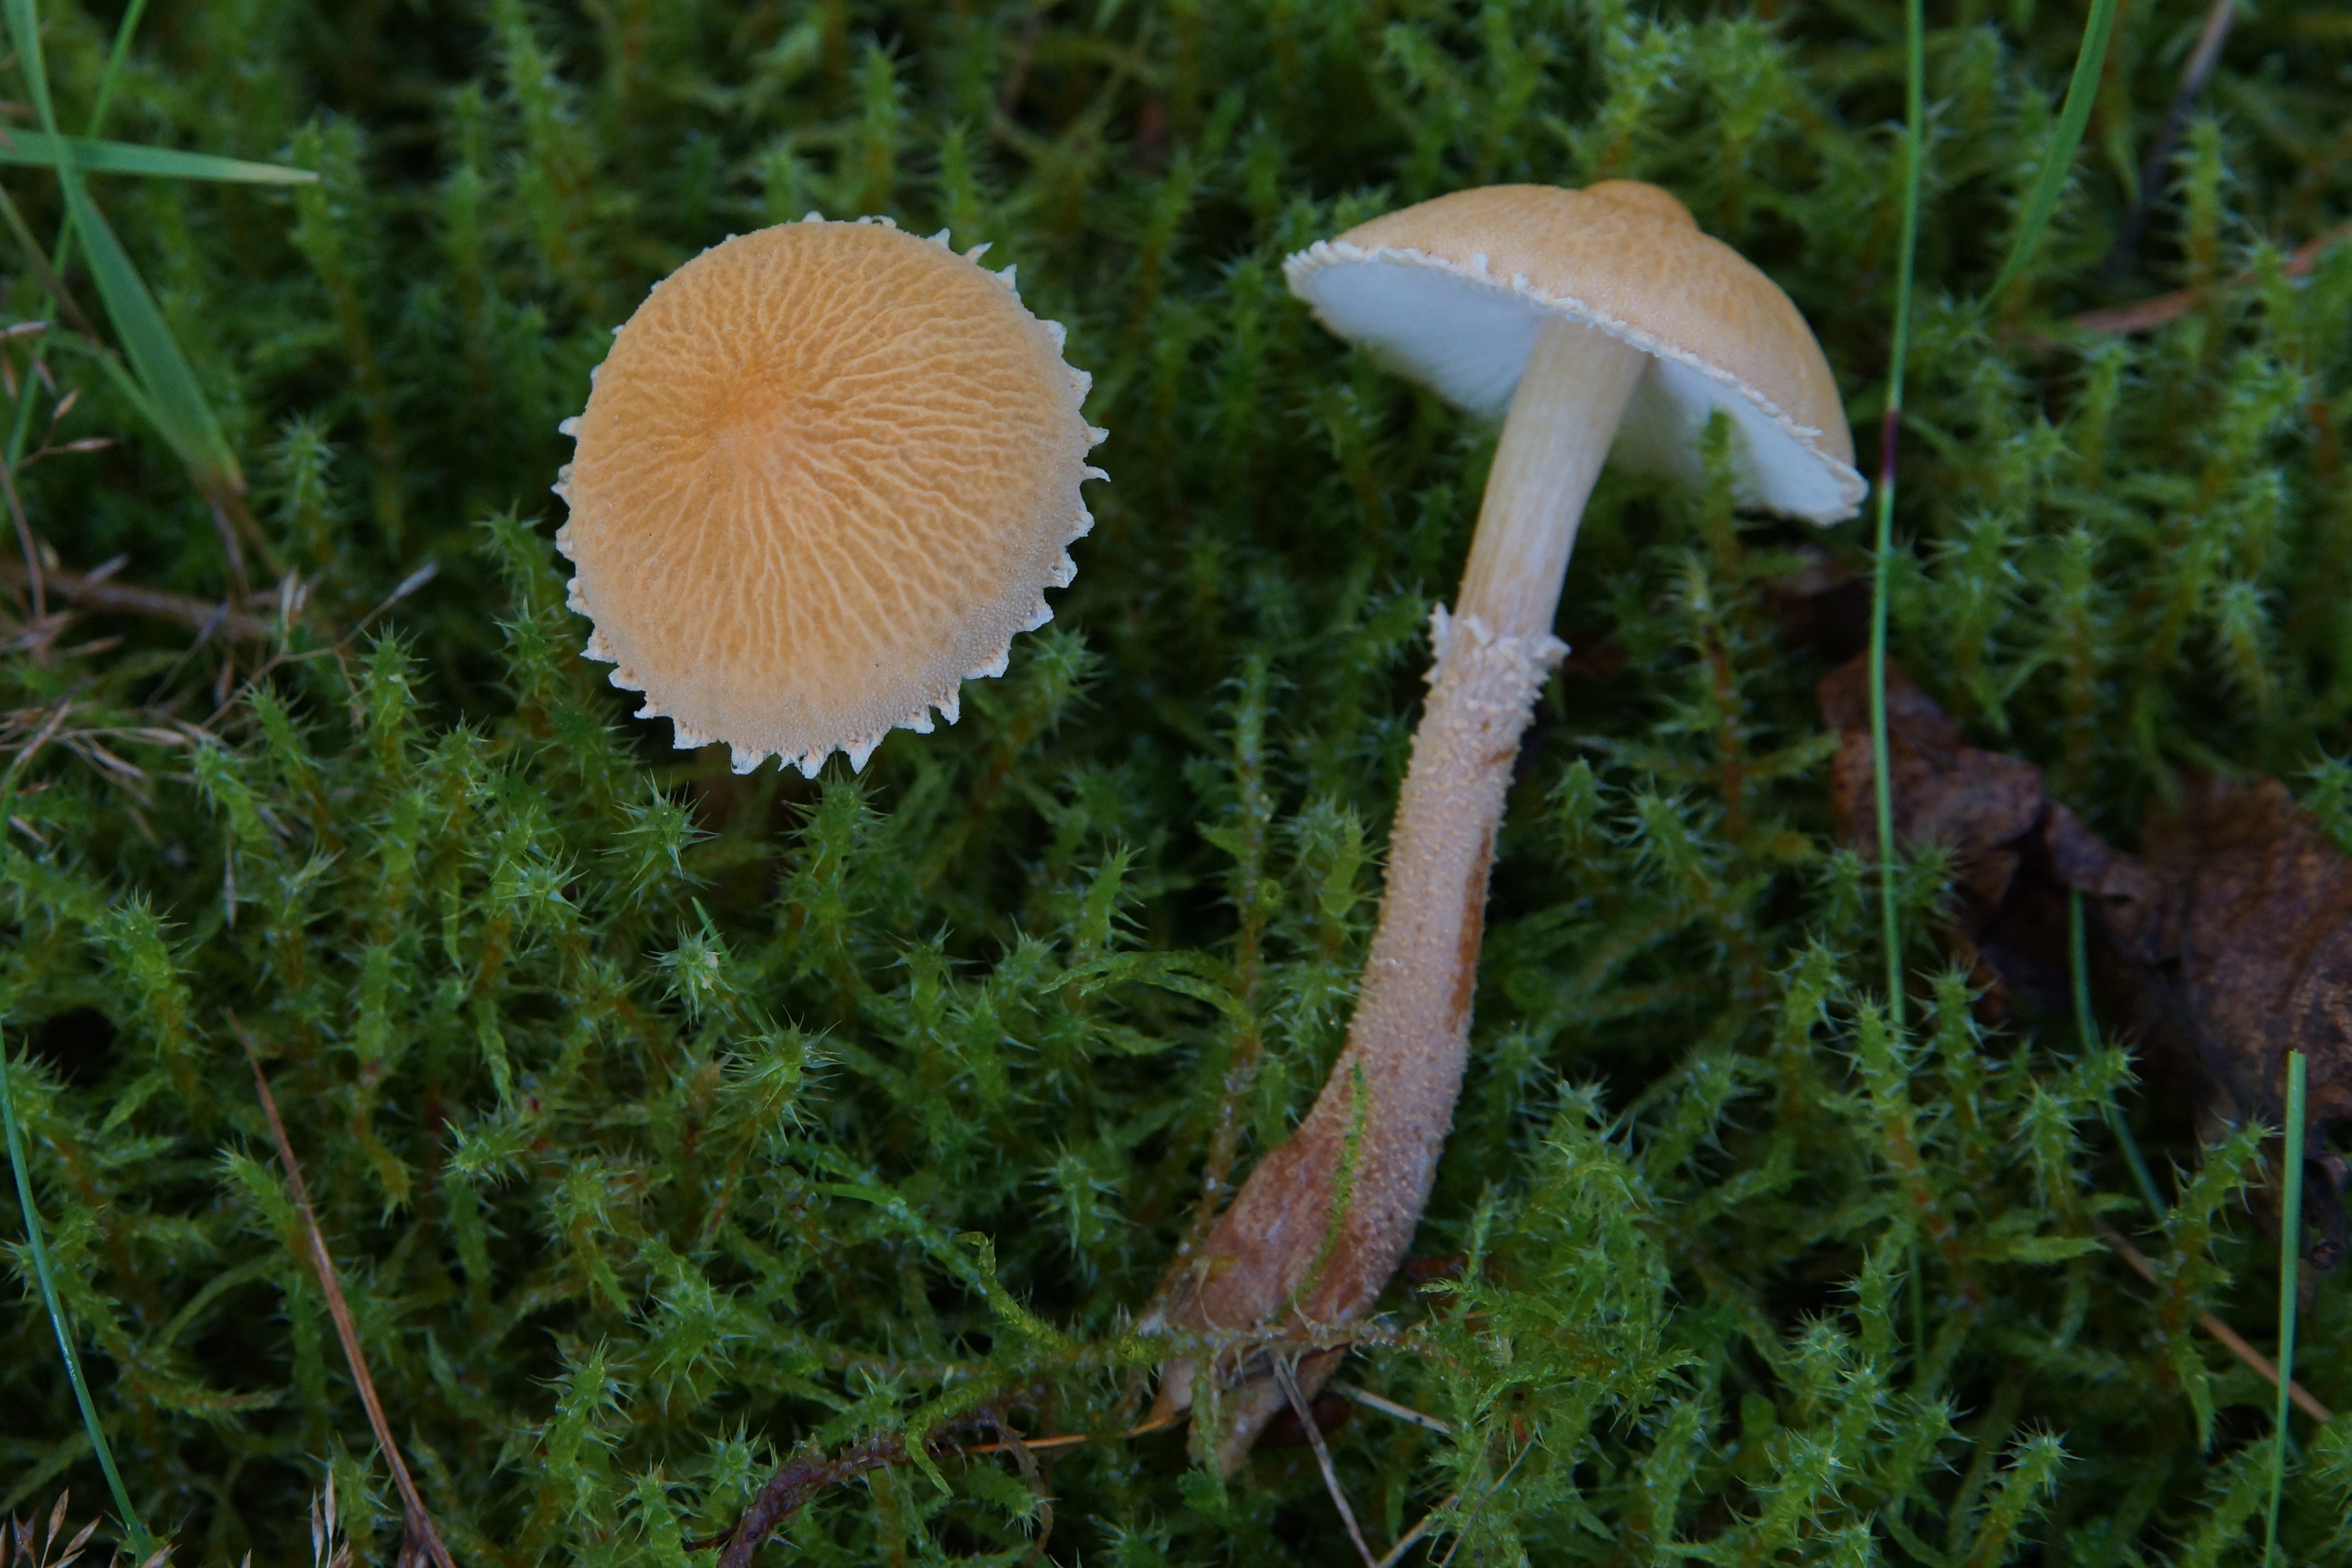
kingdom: Fungi
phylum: Basidiomycota
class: Agaricomycetes
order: Agaricales
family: Tricholomataceae
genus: Cystoderma
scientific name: Cystoderma amianthinum
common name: okkergul grynhat
